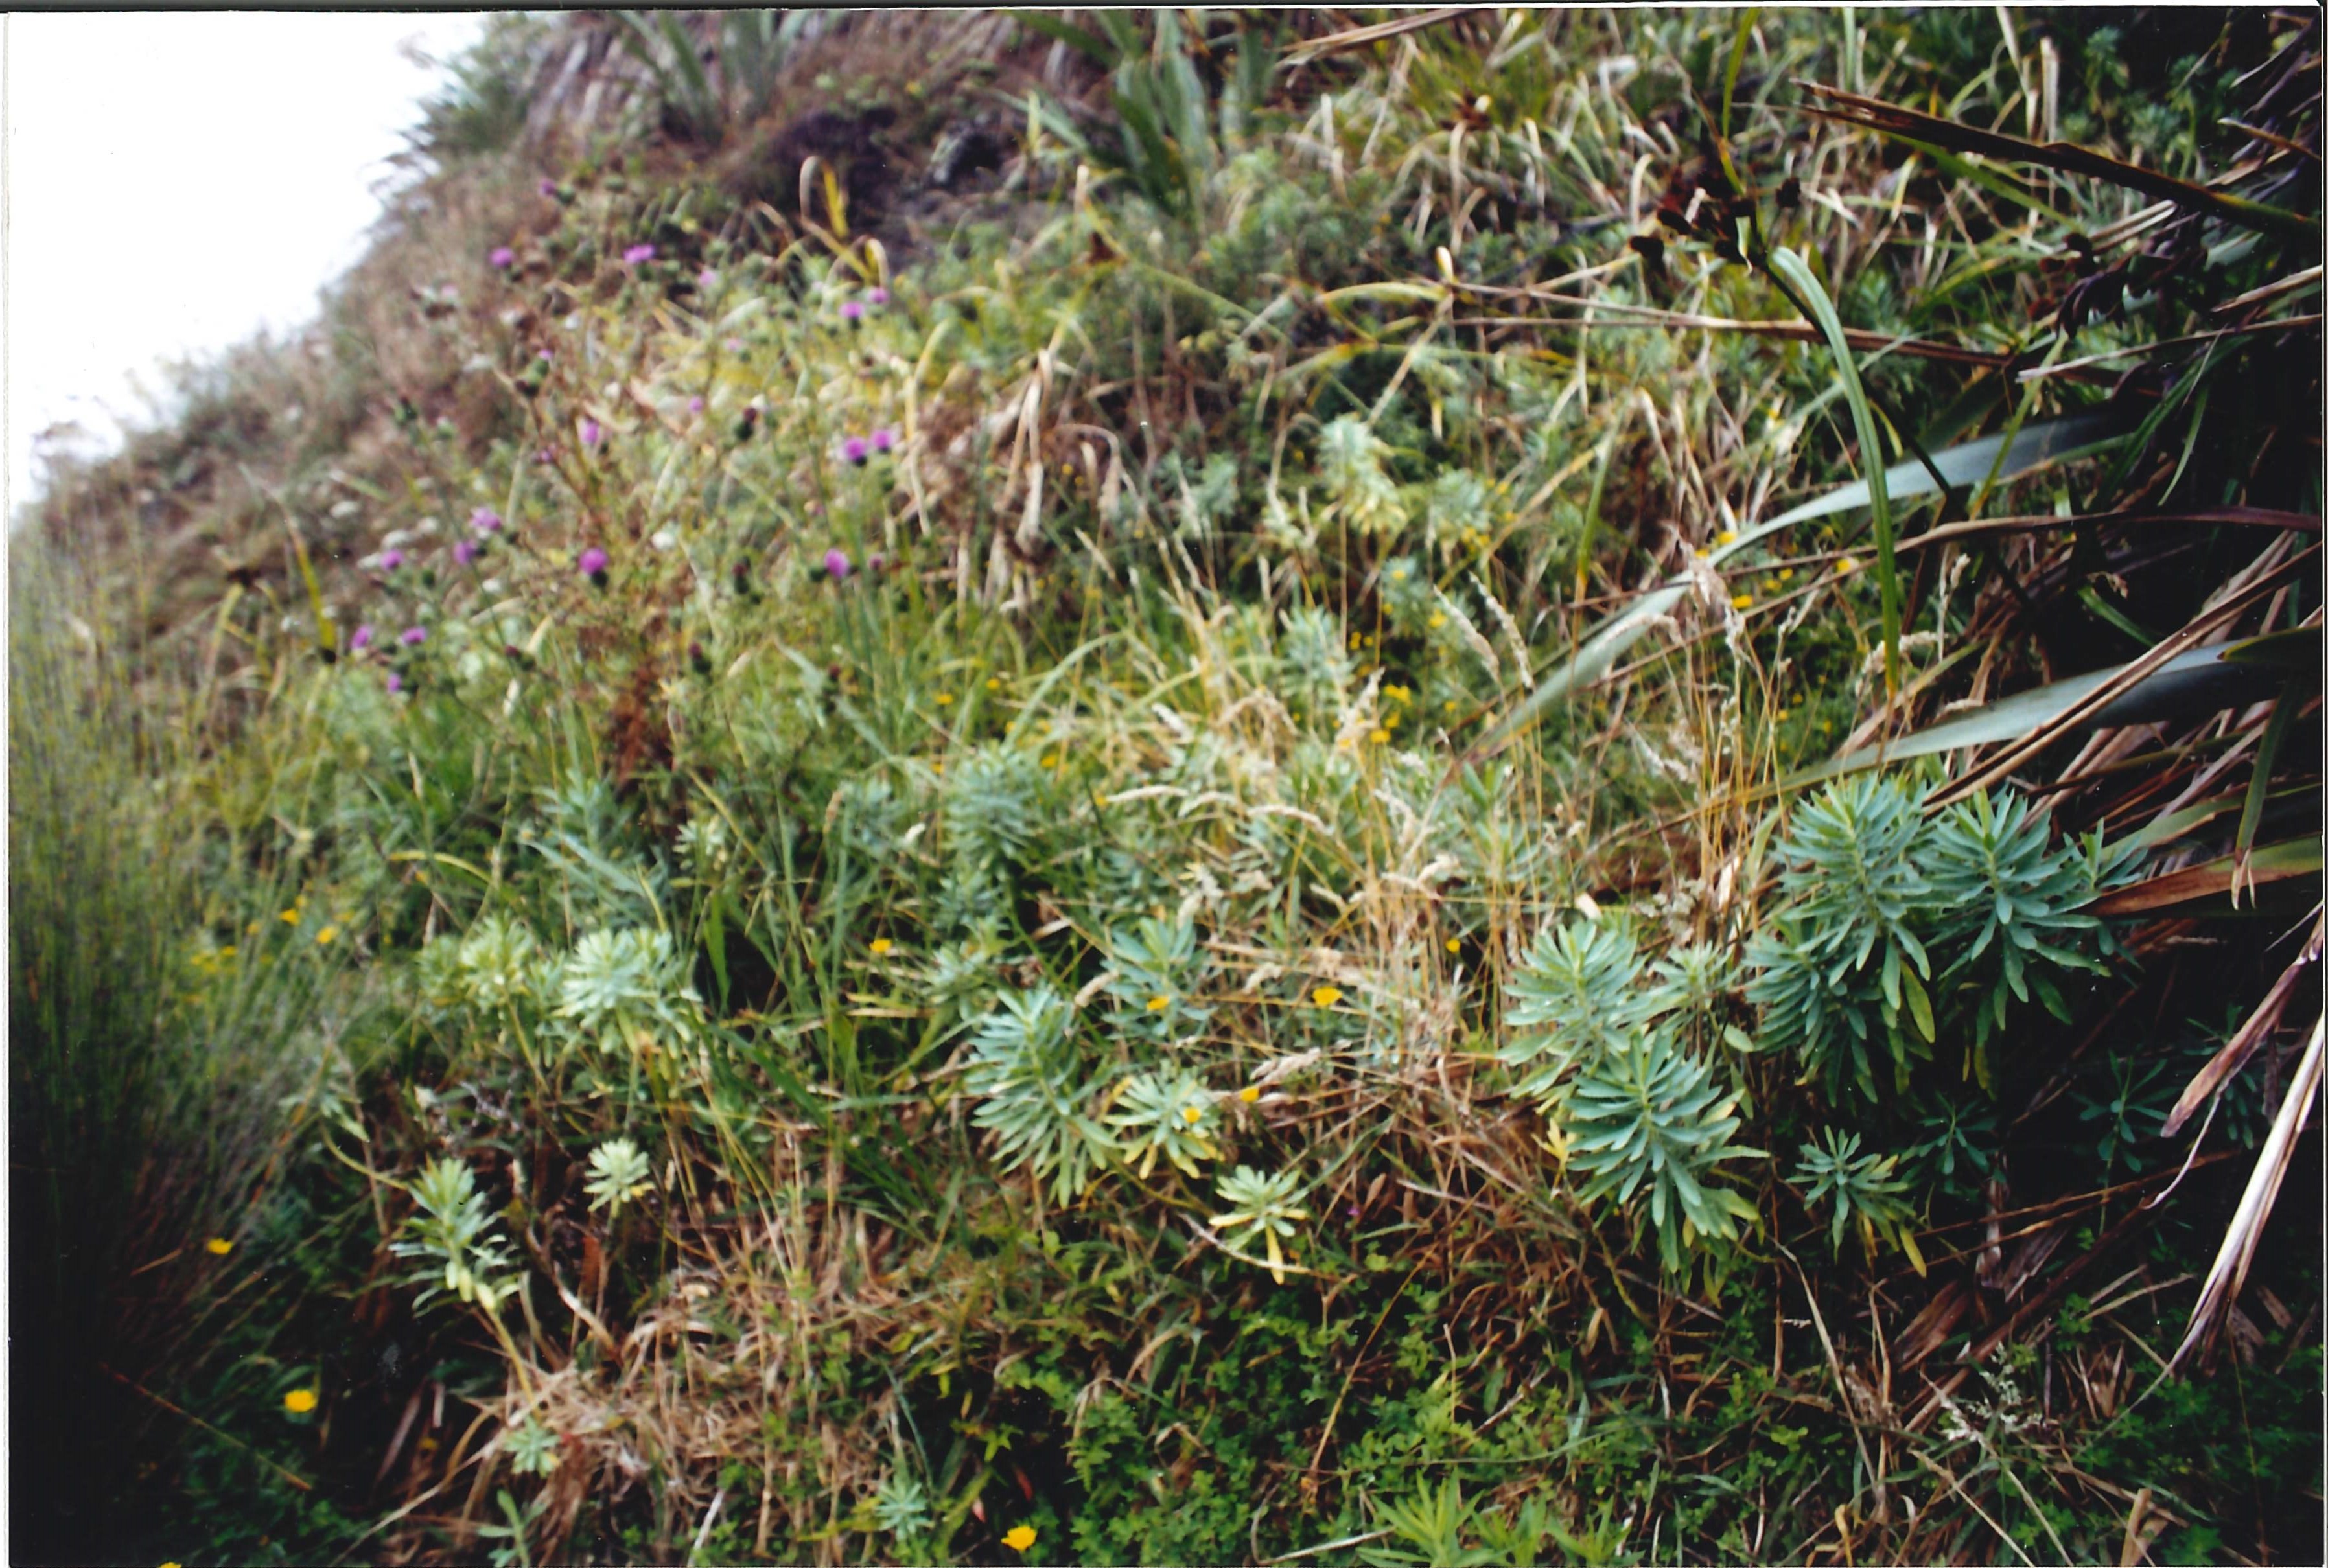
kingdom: Plantae
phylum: Tracheophyta
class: Magnoliopsida
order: Malpighiales
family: Euphorbiaceae
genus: Euphorbia
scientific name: Euphorbia glauca
